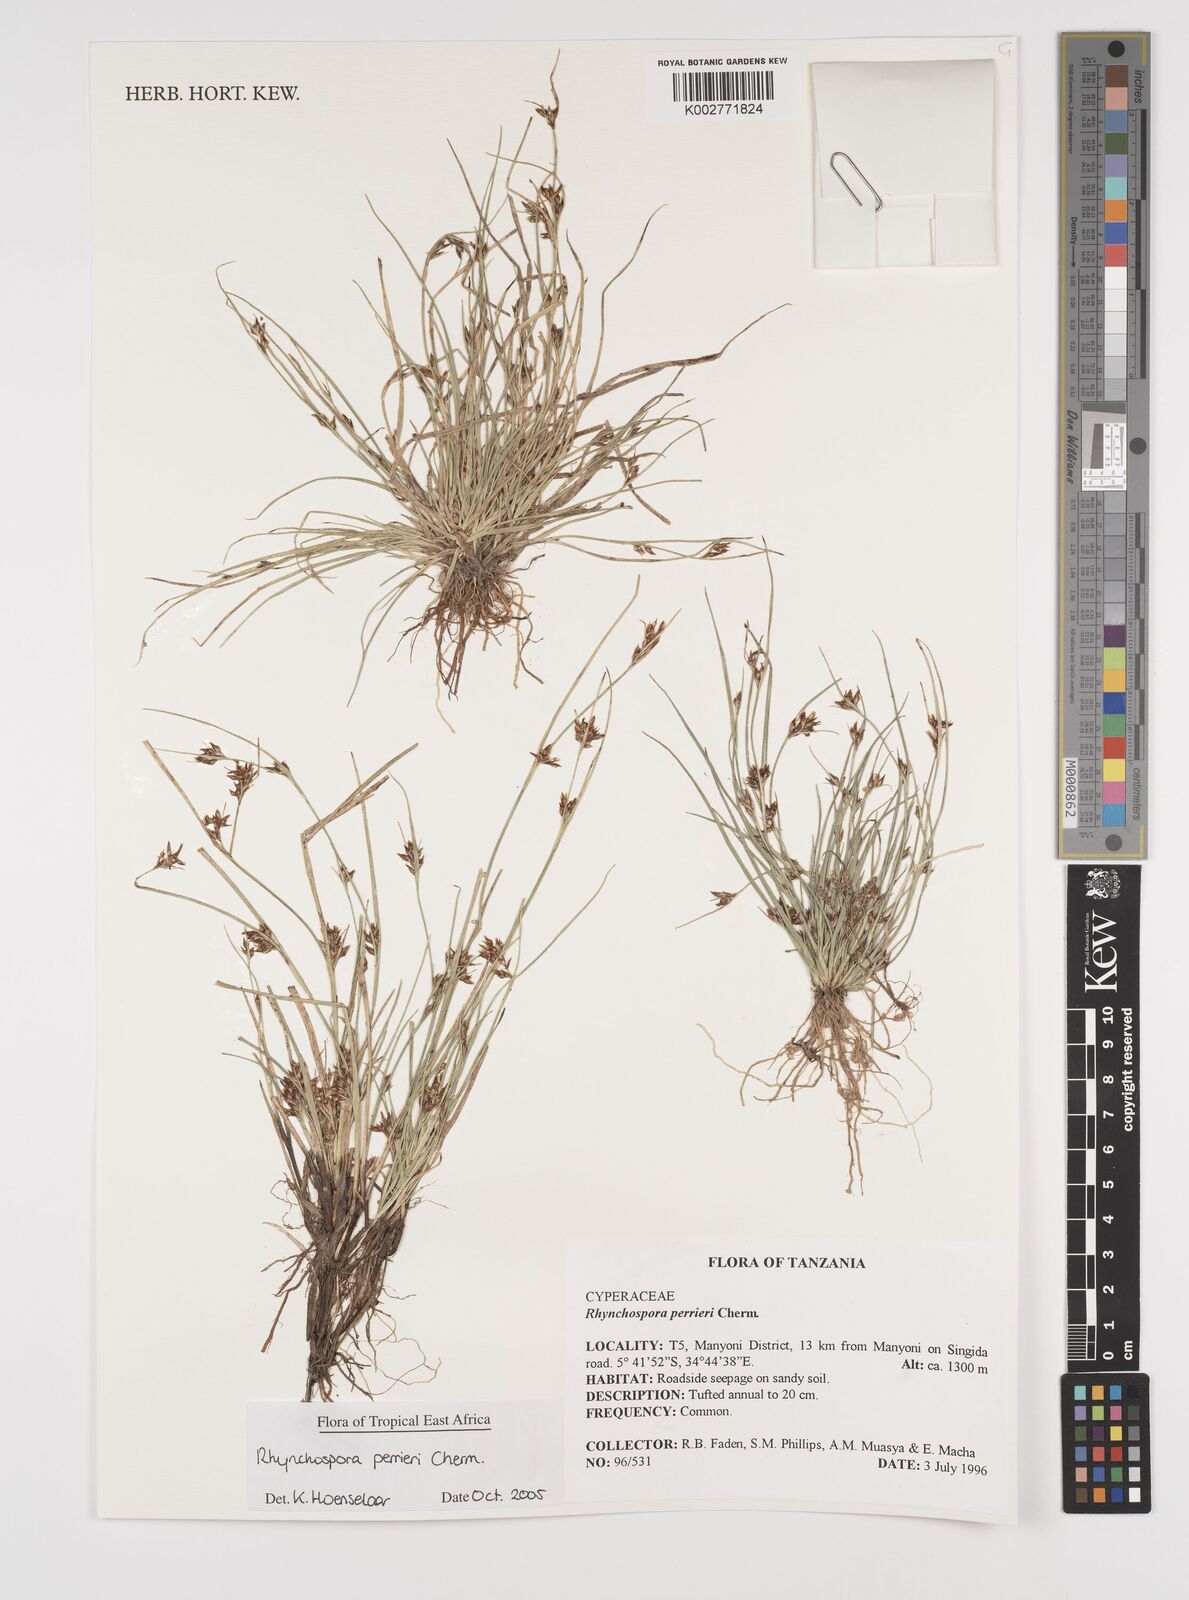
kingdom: Plantae
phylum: Tracheophyta
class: Liliopsida
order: Poales
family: Cyperaceae
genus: Rhynchospora
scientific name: Rhynchospora perrieri
